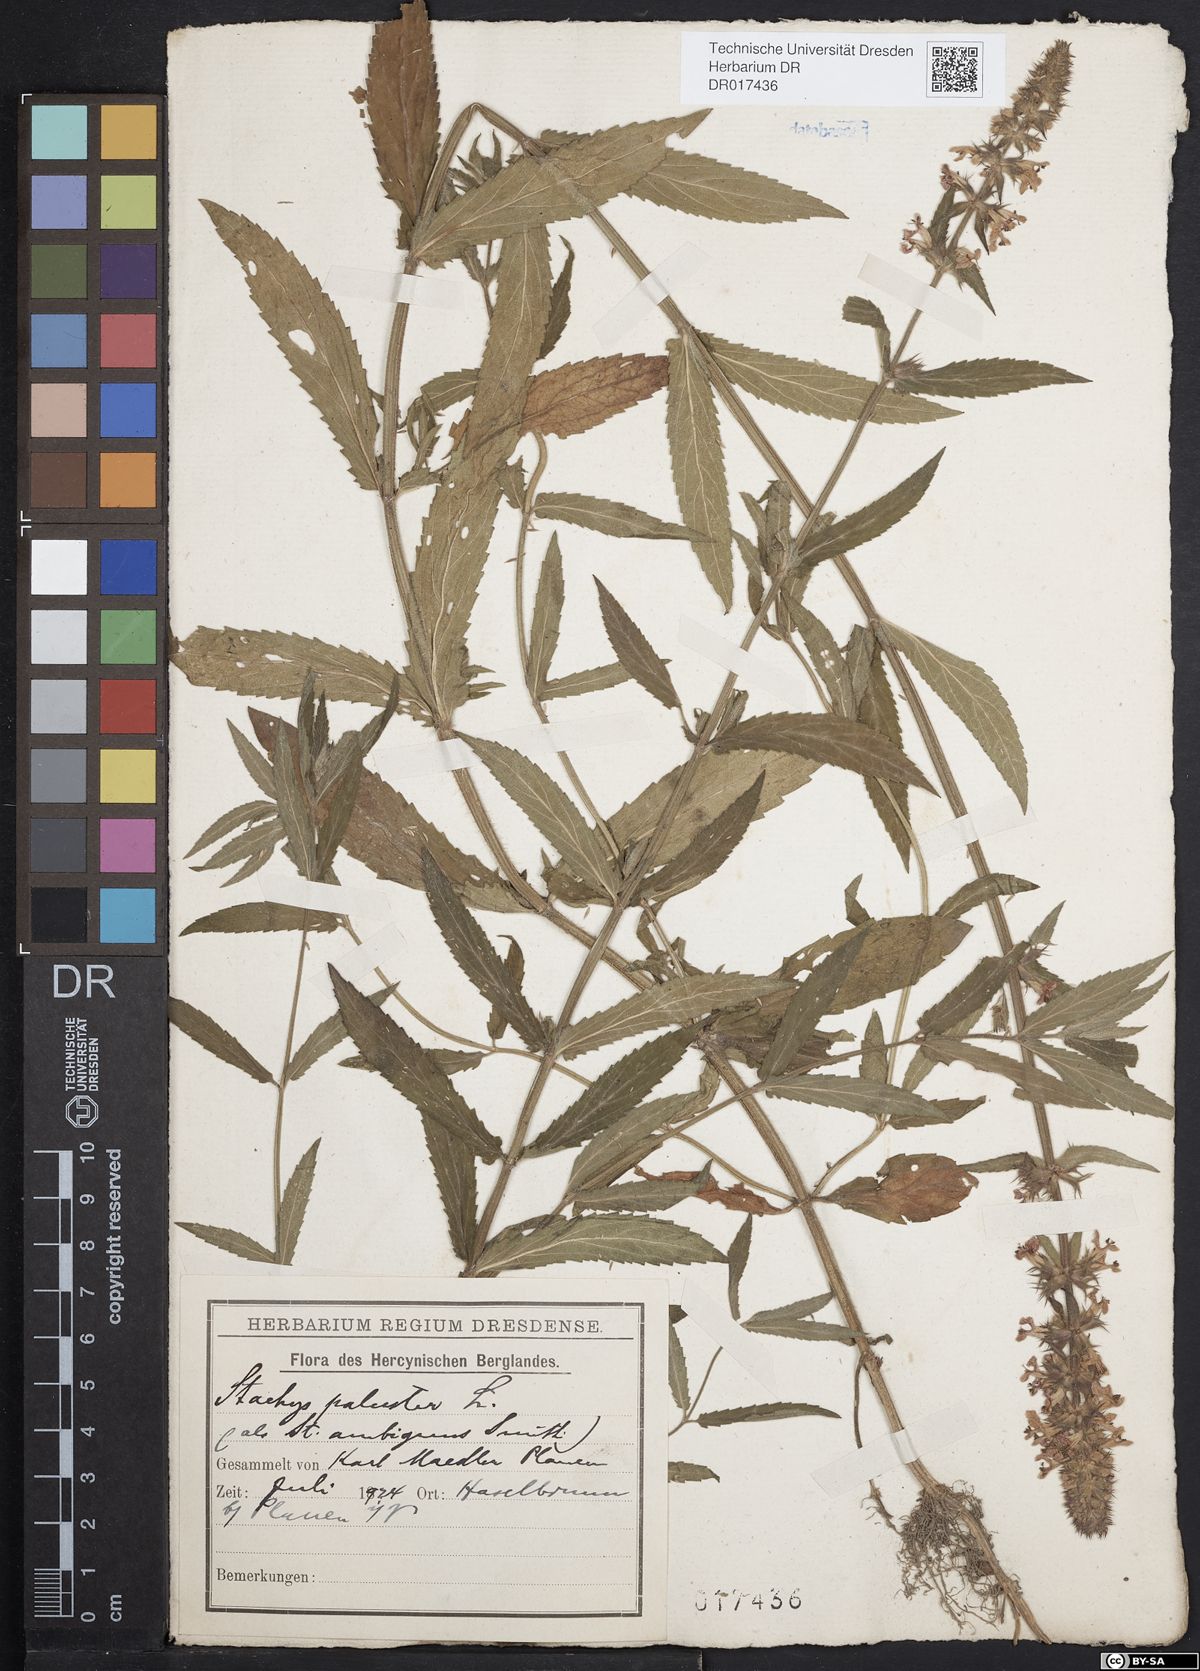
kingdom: Plantae
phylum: Tracheophyta
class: Magnoliopsida
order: Lamiales
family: Lamiaceae
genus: Stachys
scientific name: Stachys palustris
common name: Marsh woundwort
